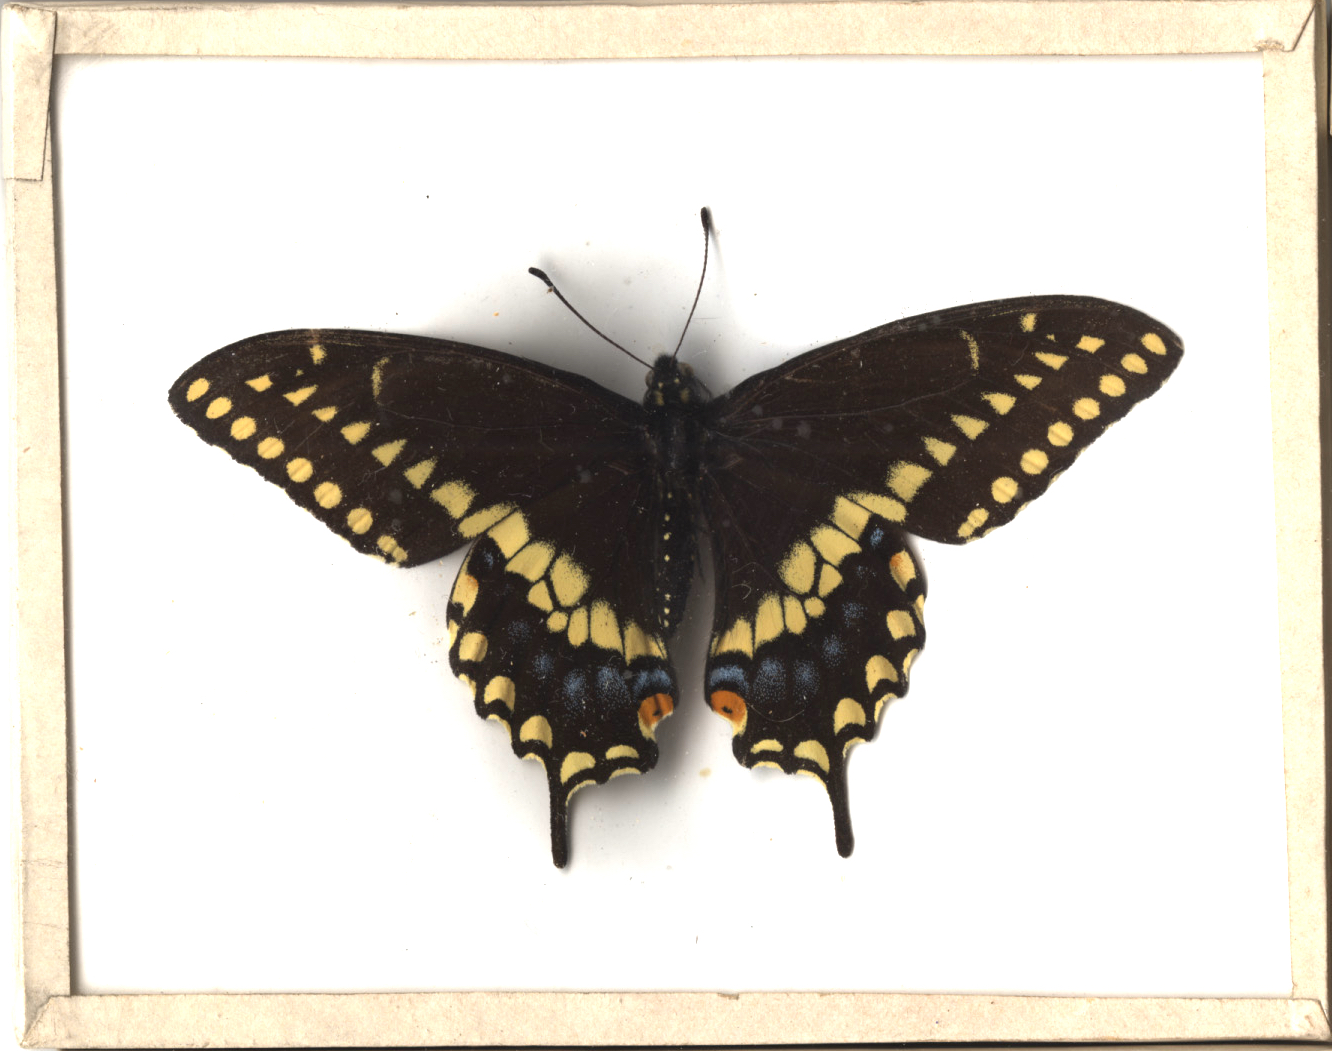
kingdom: Animalia
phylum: Arthropoda
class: Insecta
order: Lepidoptera
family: Papilionidae
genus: Papilio
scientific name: Papilio polyxenes
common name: Black Swallowtail
